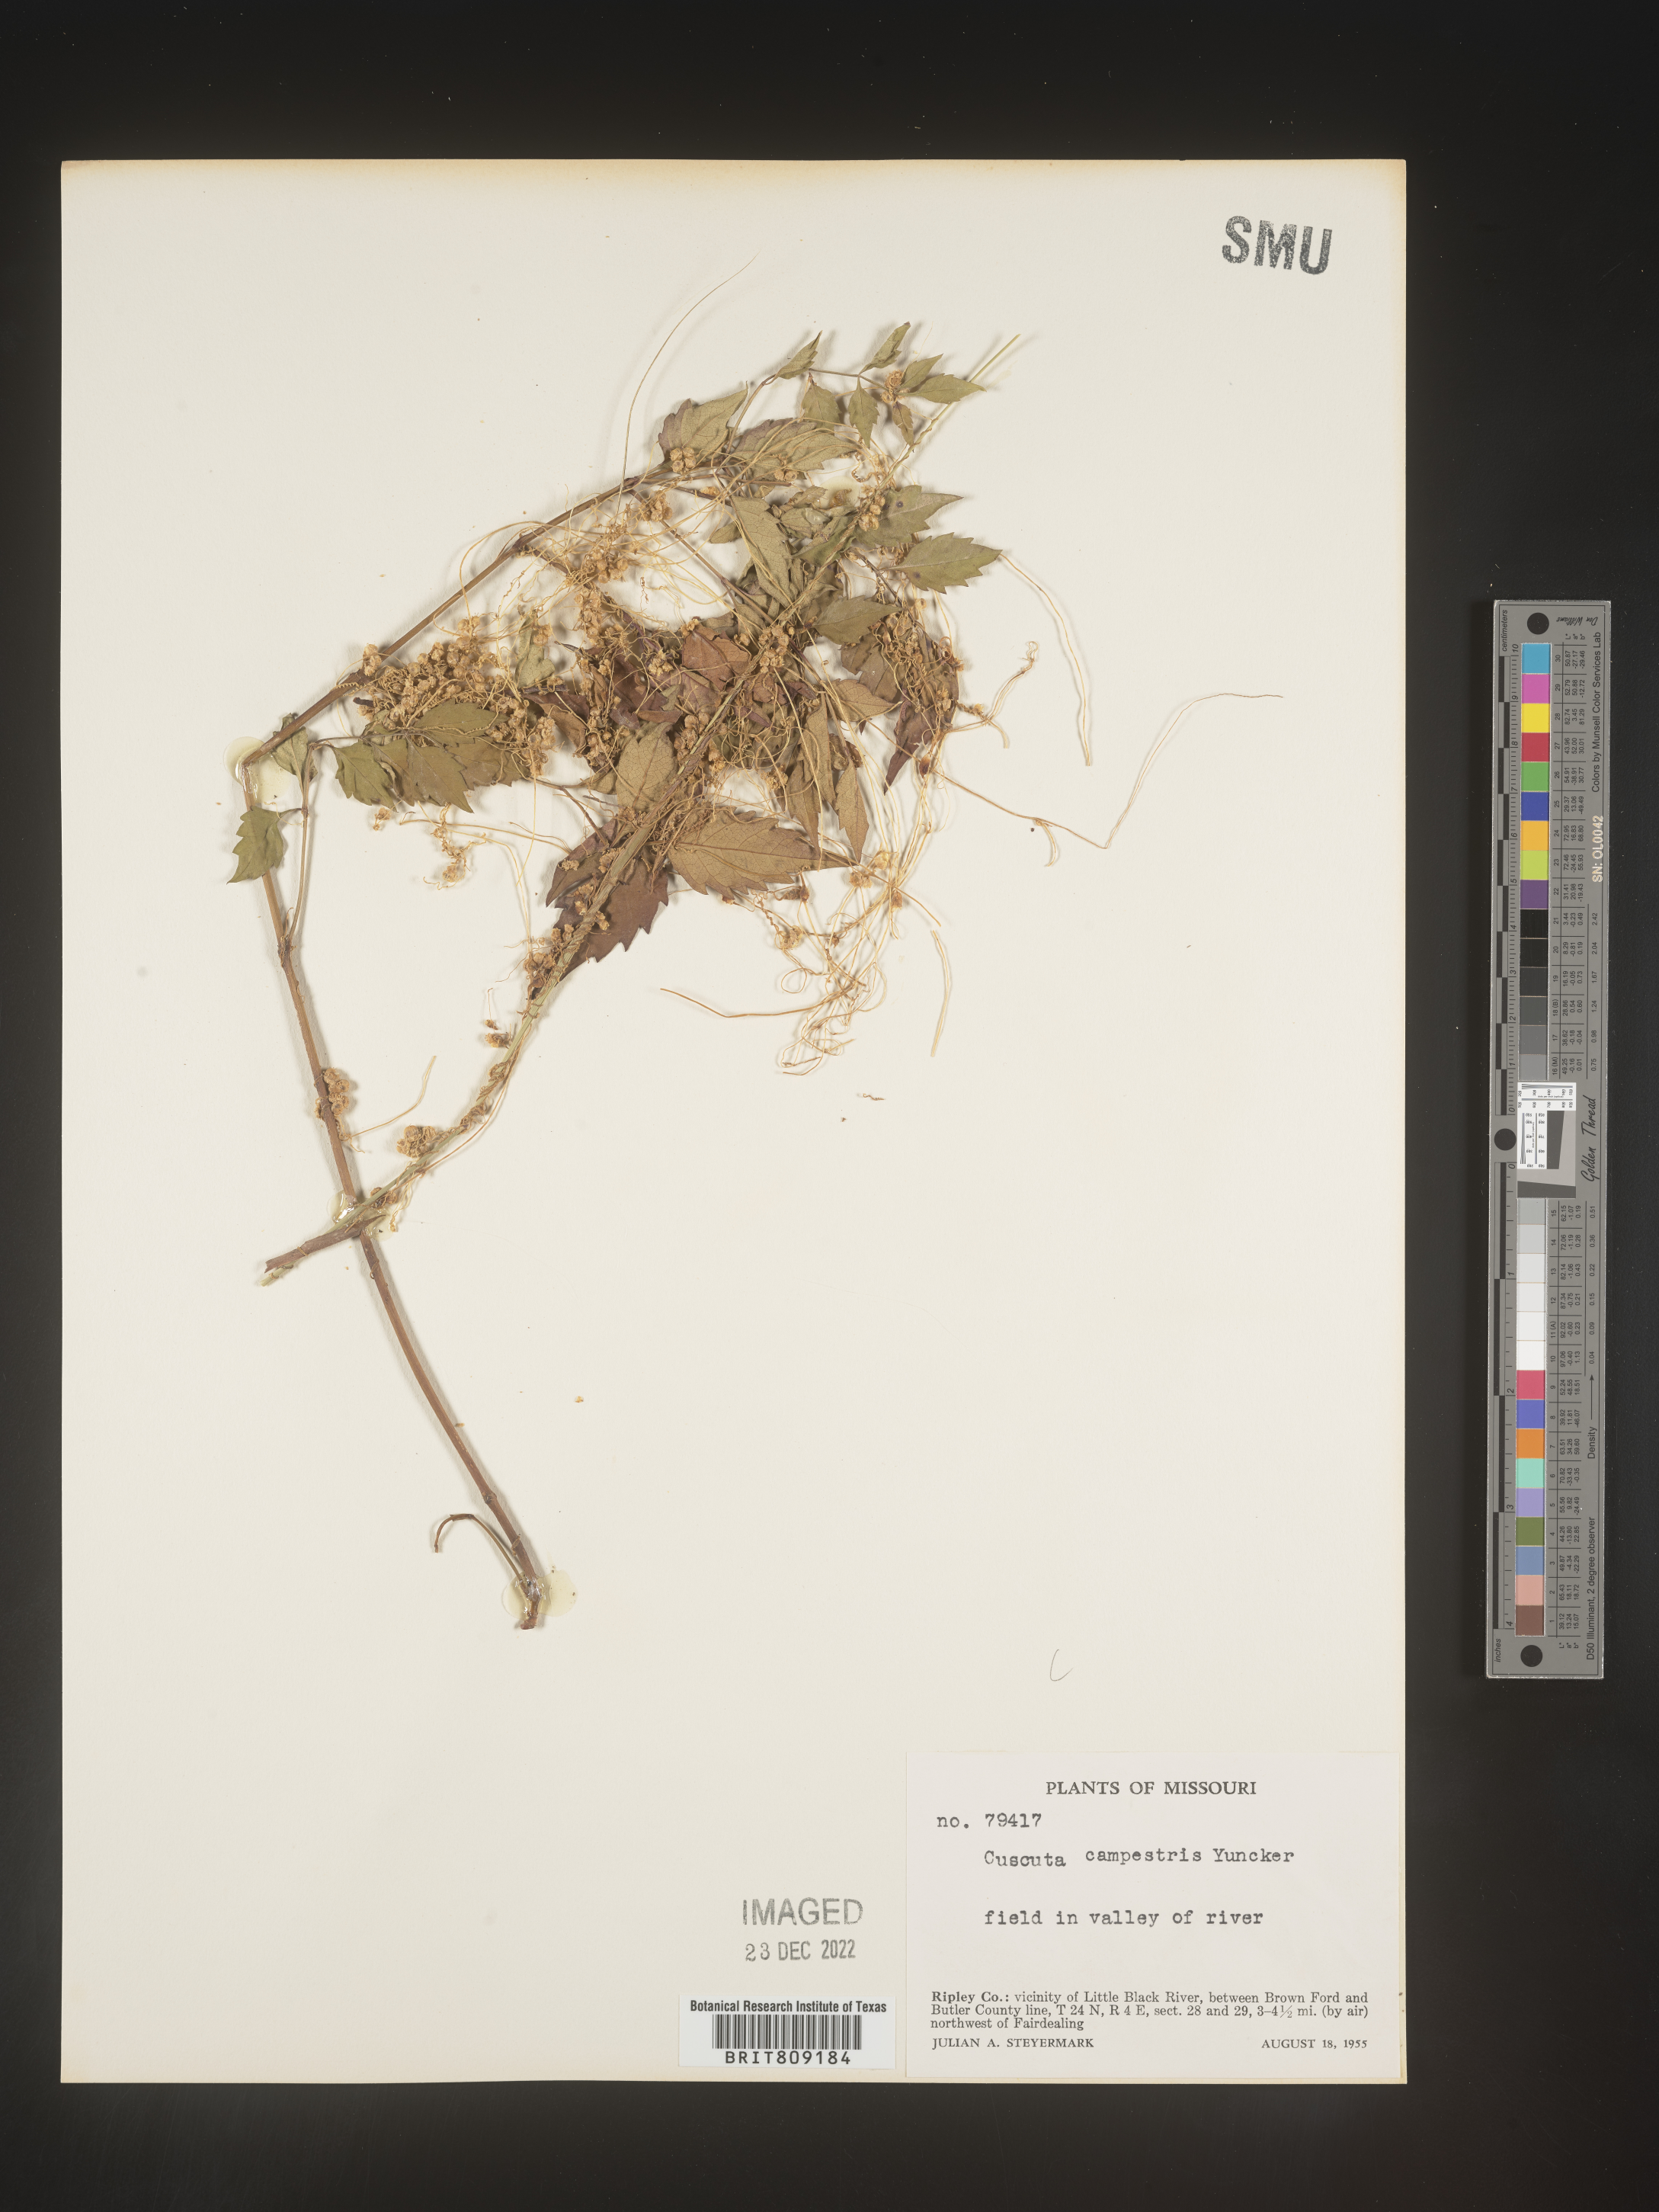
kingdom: Plantae
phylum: Tracheophyta
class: Magnoliopsida
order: Solanales
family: Convolvulaceae
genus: Cuscuta
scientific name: Cuscuta campestris
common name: Yellow dodder
